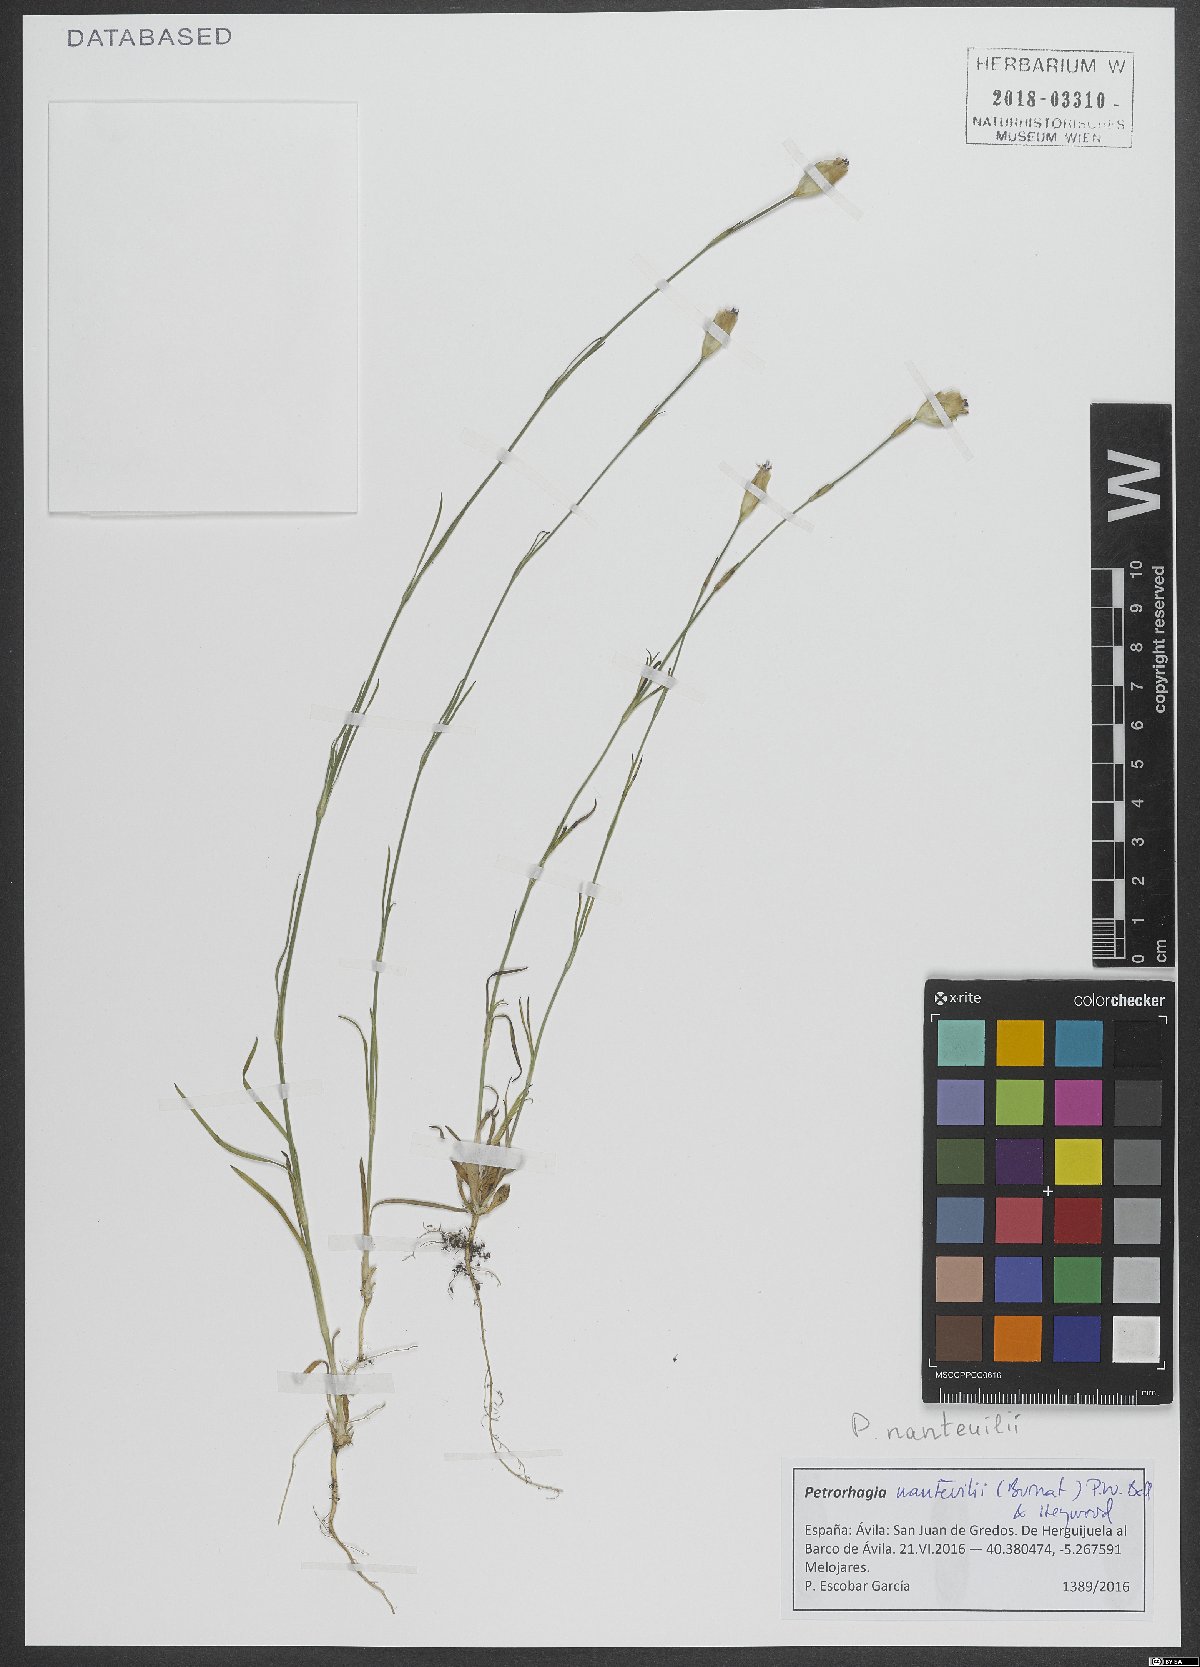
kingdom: Plantae
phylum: Tracheophyta
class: Magnoliopsida
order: Caryophyllales
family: Caryophyllaceae
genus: Petrorhagia
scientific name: Petrorhagia nanteuilii
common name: Proliferous pink
